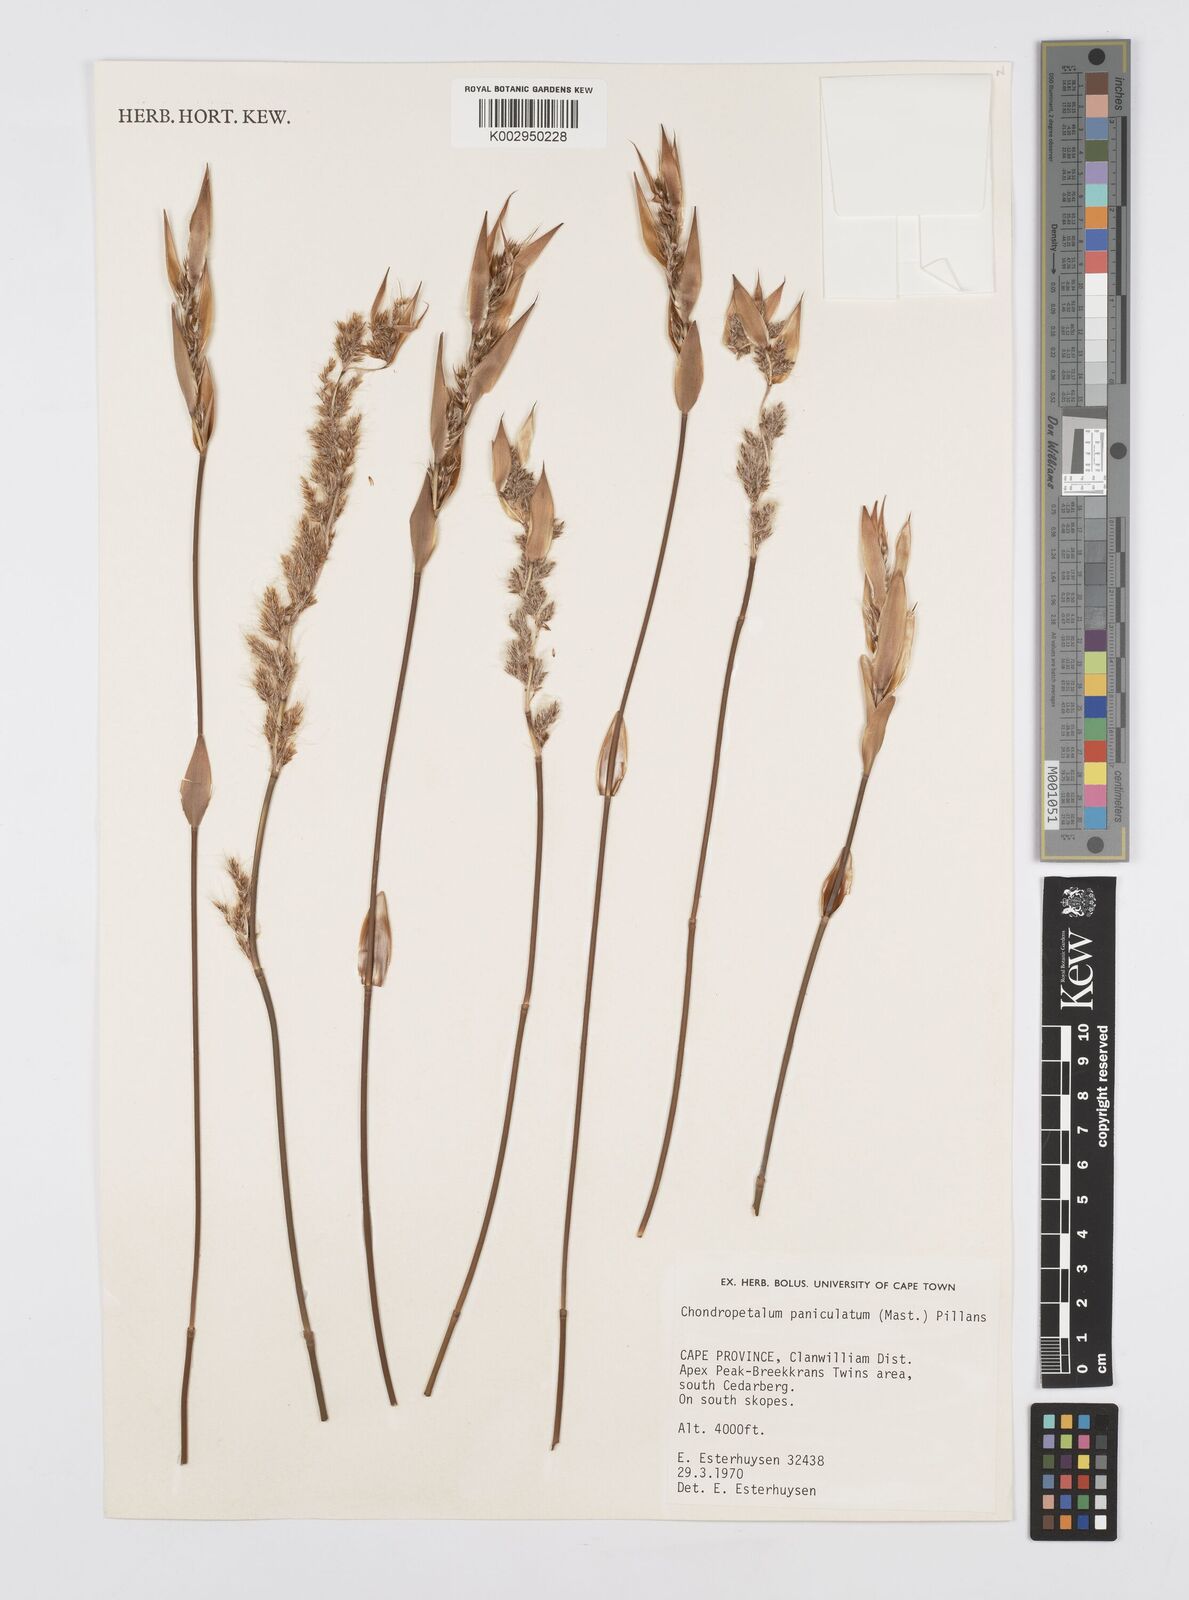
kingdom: Plantae
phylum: Tracheophyta
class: Liliopsida
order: Poales
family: Restionaceae
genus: Askidiosperma
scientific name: Askidiosperma paniculatum
